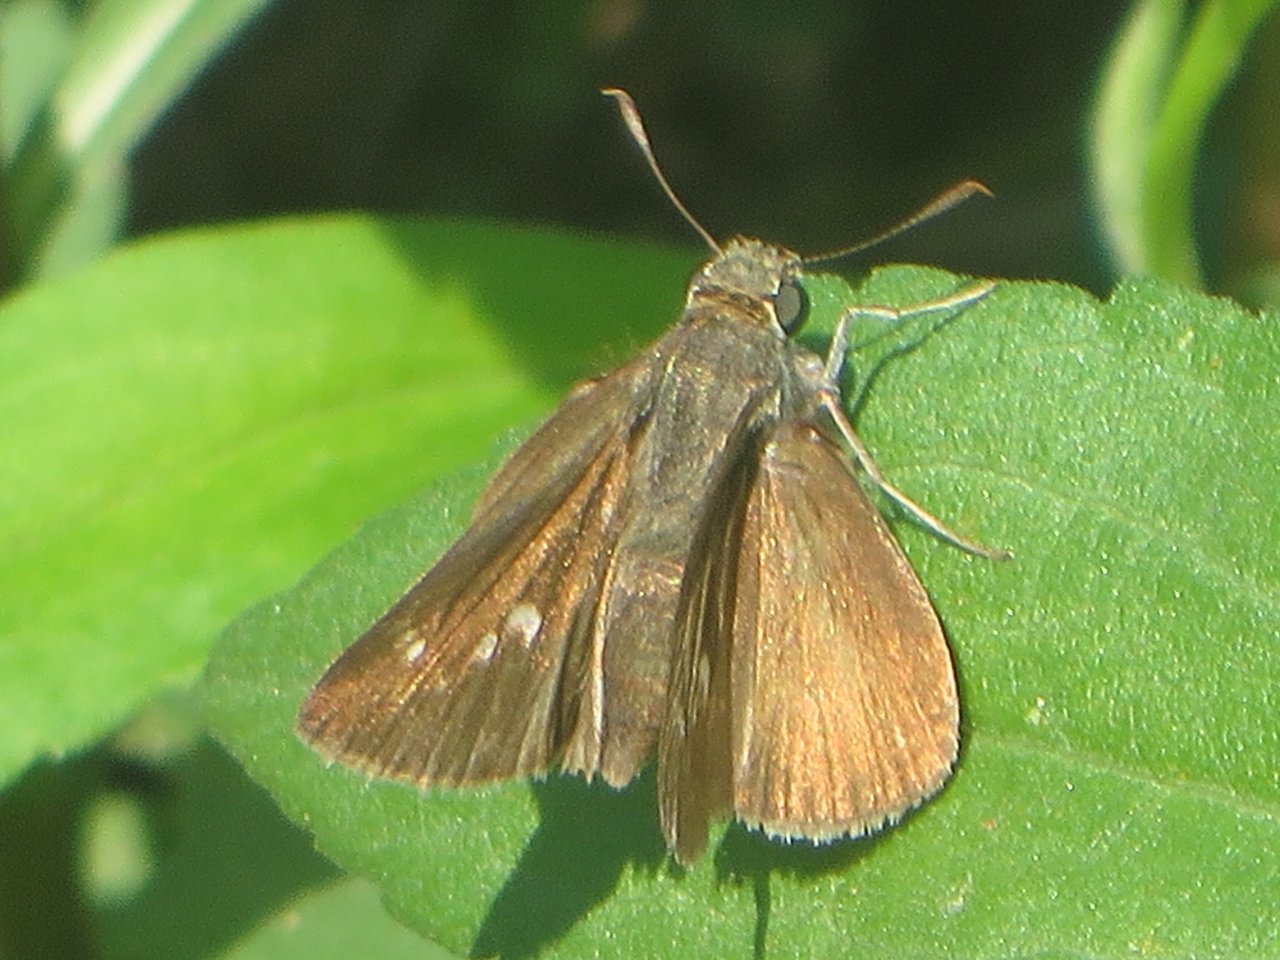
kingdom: Animalia
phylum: Arthropoda
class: Insecta
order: Lepidoptera
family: Hesperiidae
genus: Euphyes
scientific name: Euphyes vestris
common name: Dun Skipper
